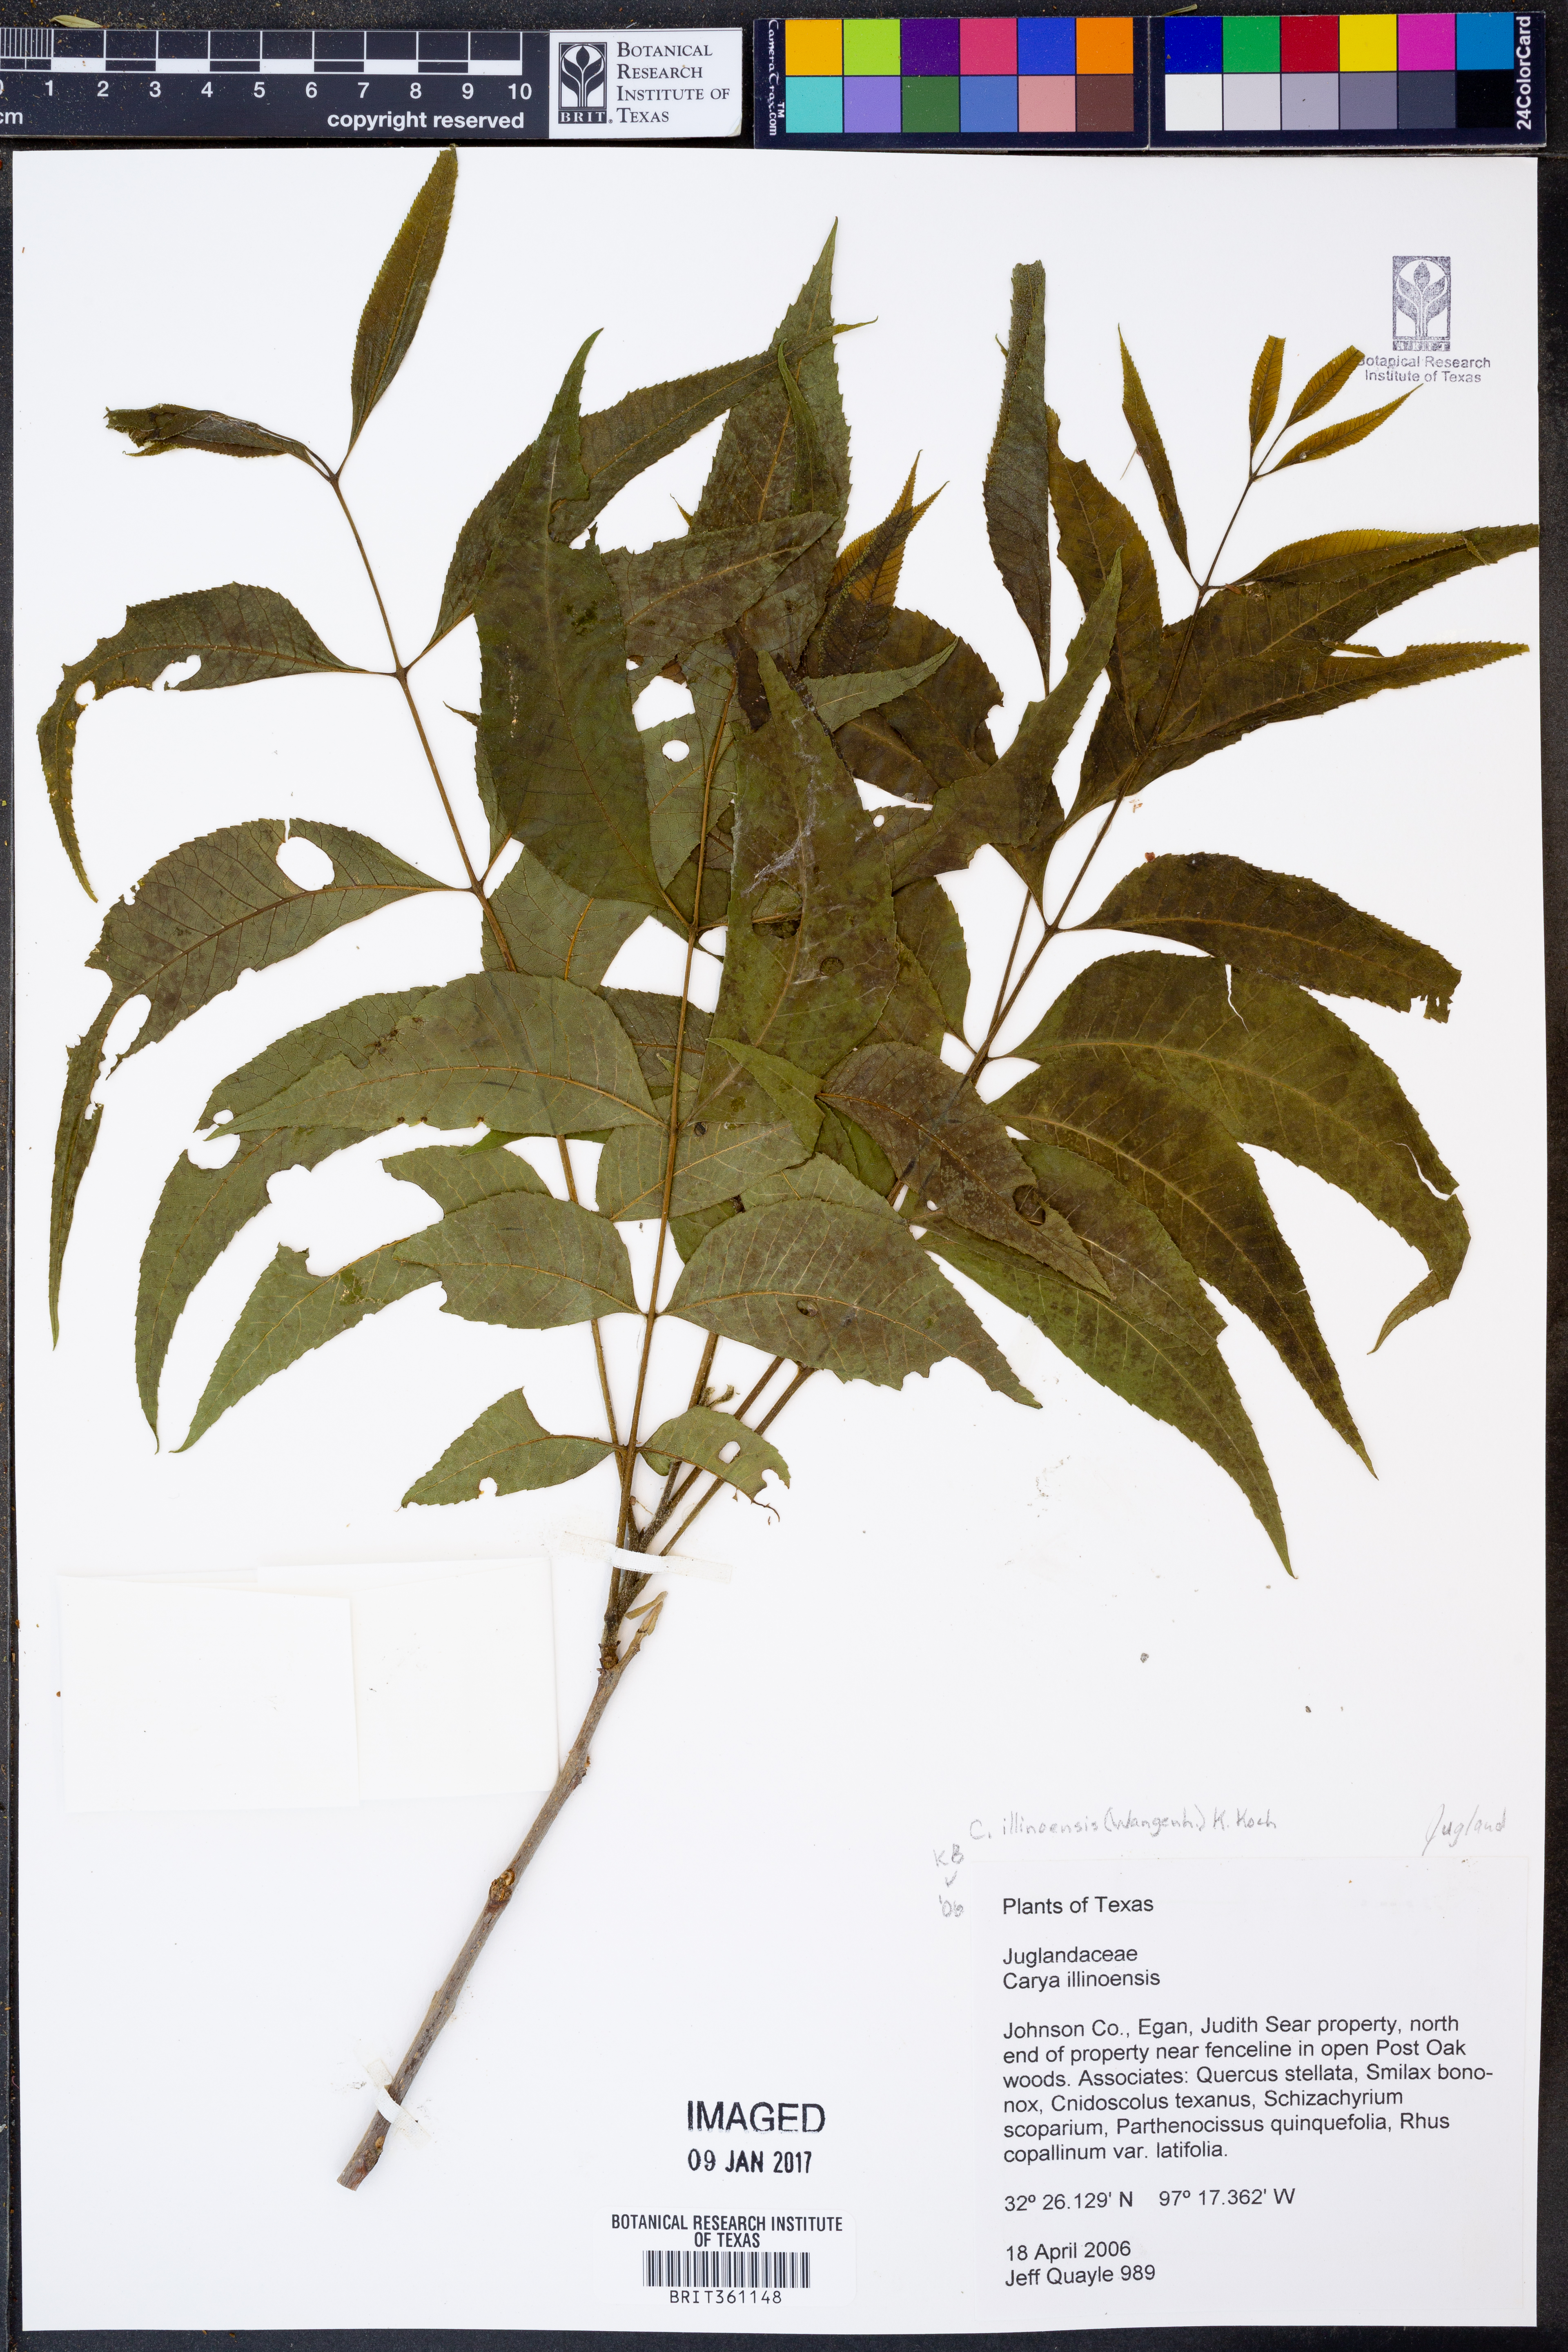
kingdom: Plantae
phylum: Tracheophyta
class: Magnoliopsida
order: Fagales
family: Juglandaceae
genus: Carya
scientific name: Carya illinoinensis
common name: Pecan
